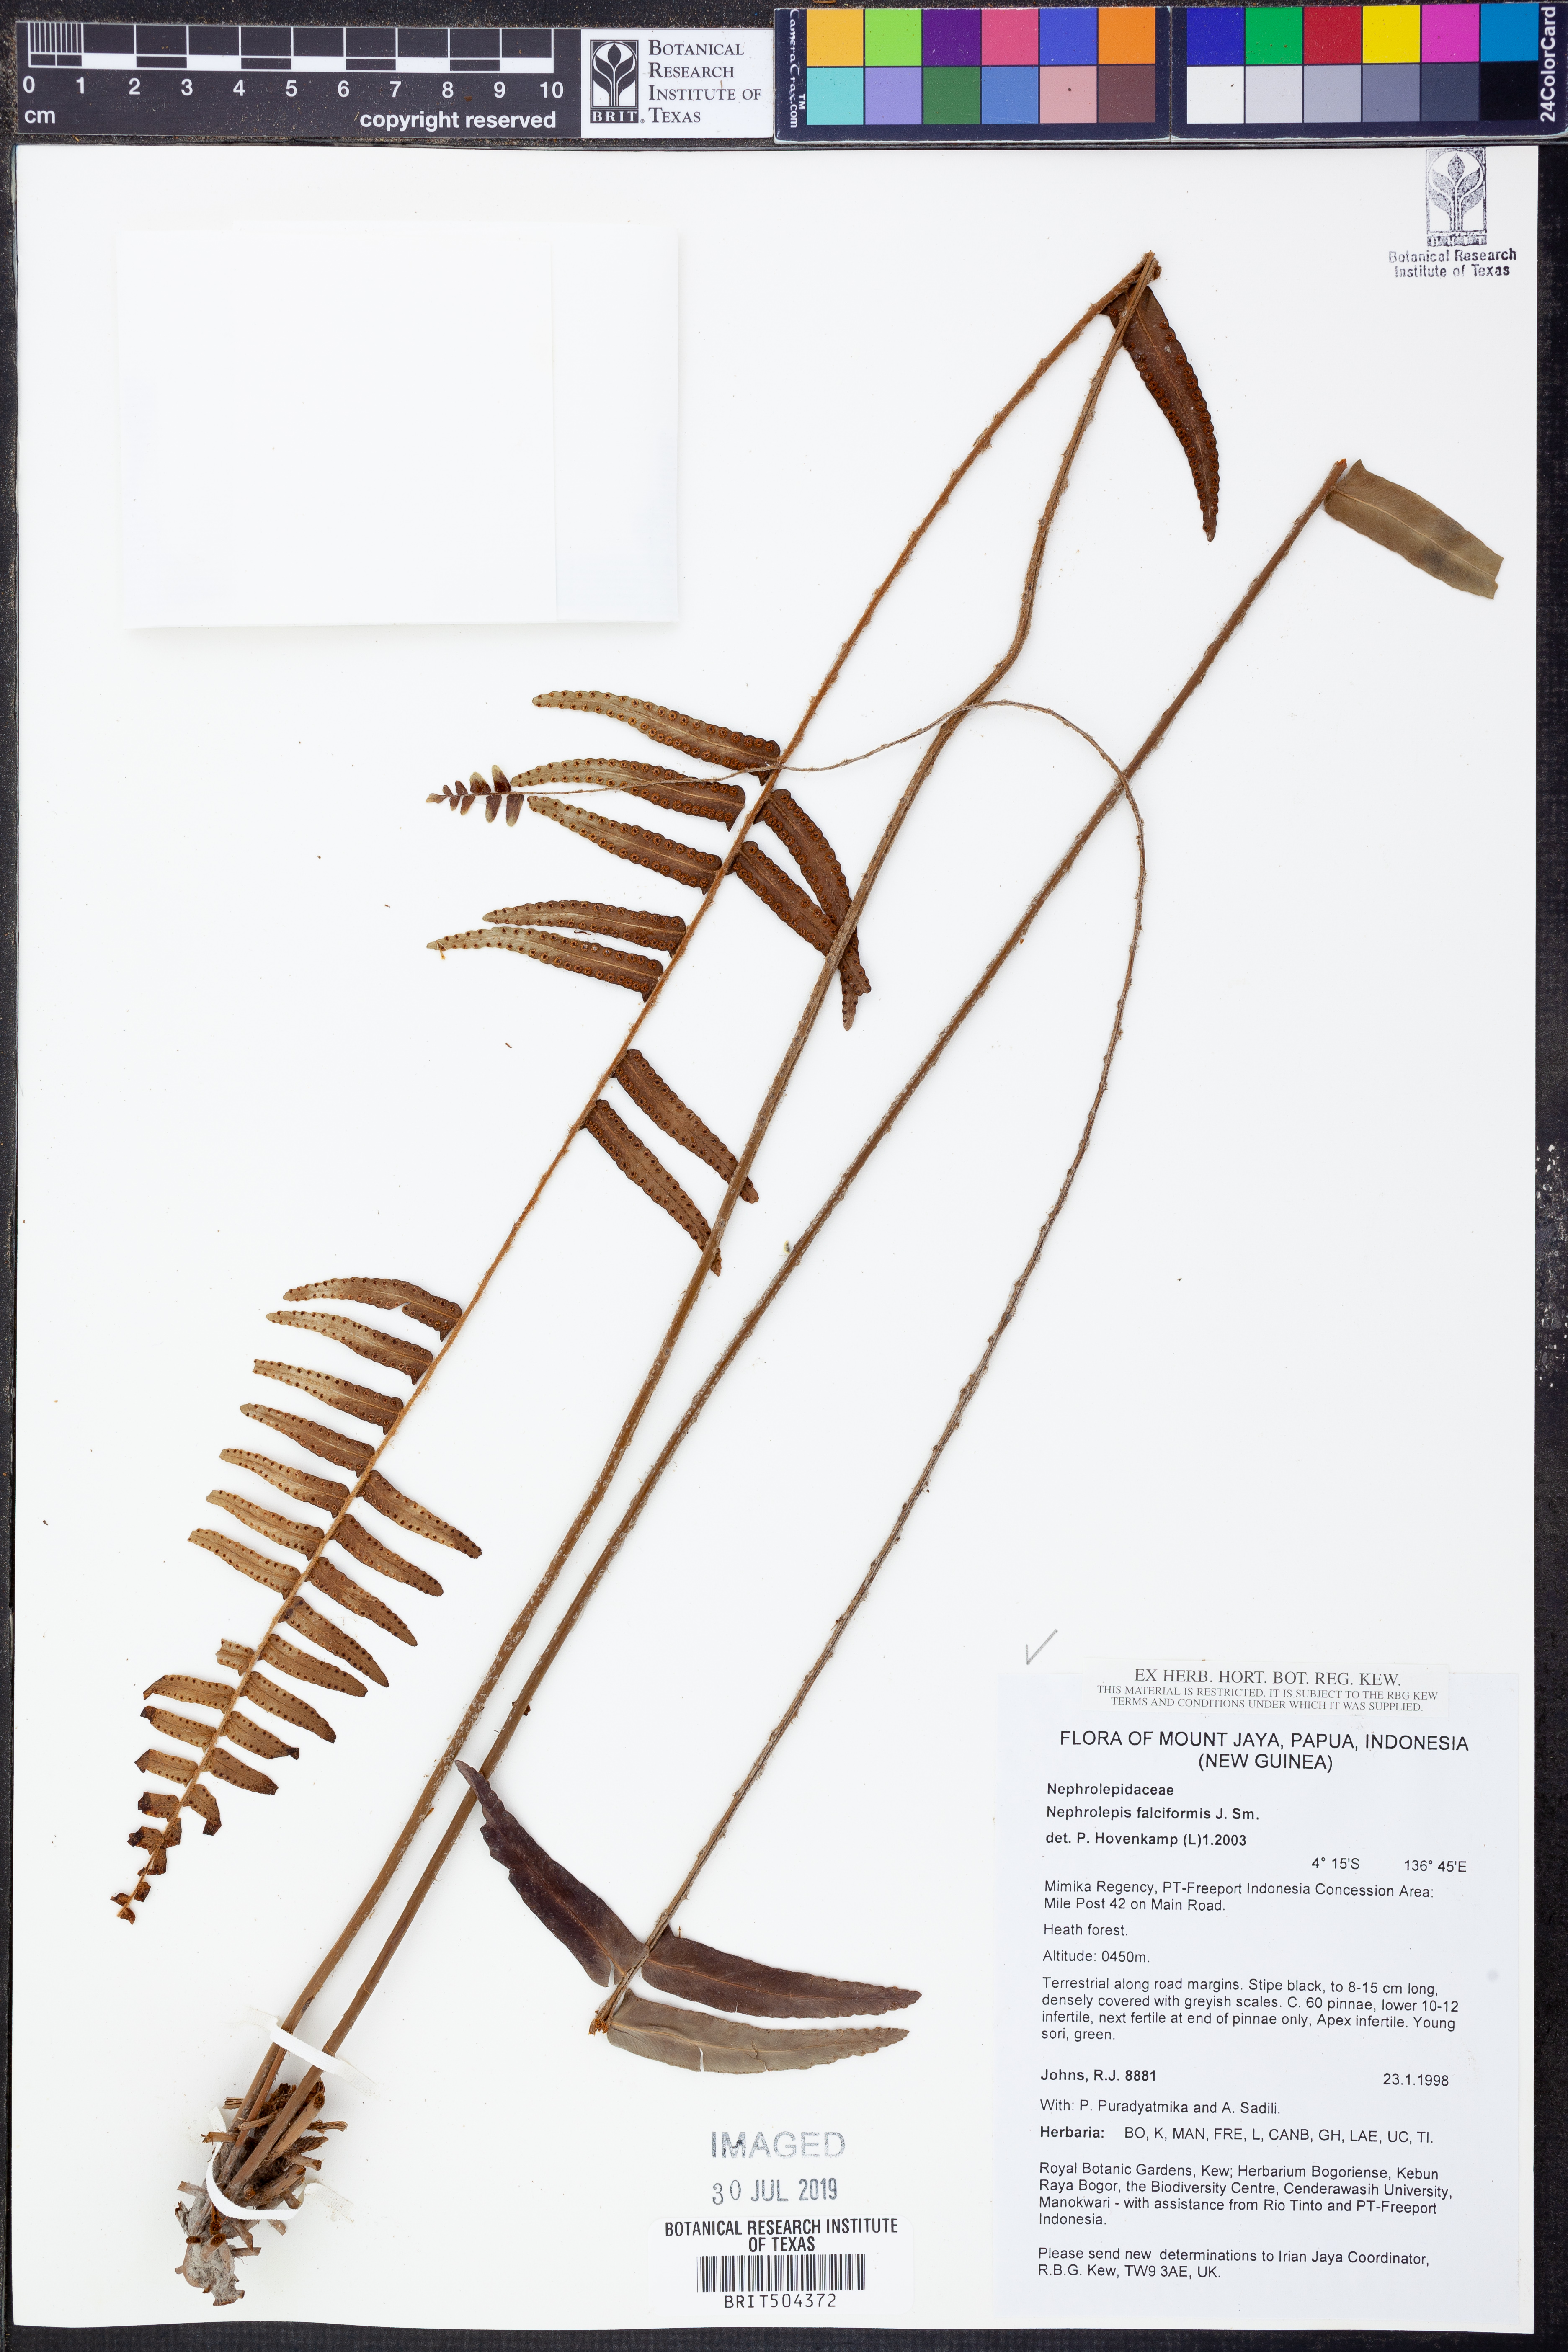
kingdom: Plantae
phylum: Tracheophyta
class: Polypodiopsida
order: Polypodiales
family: Nephrolepidaceae
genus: Nephrolepis
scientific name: Nephrolepis falciformis
